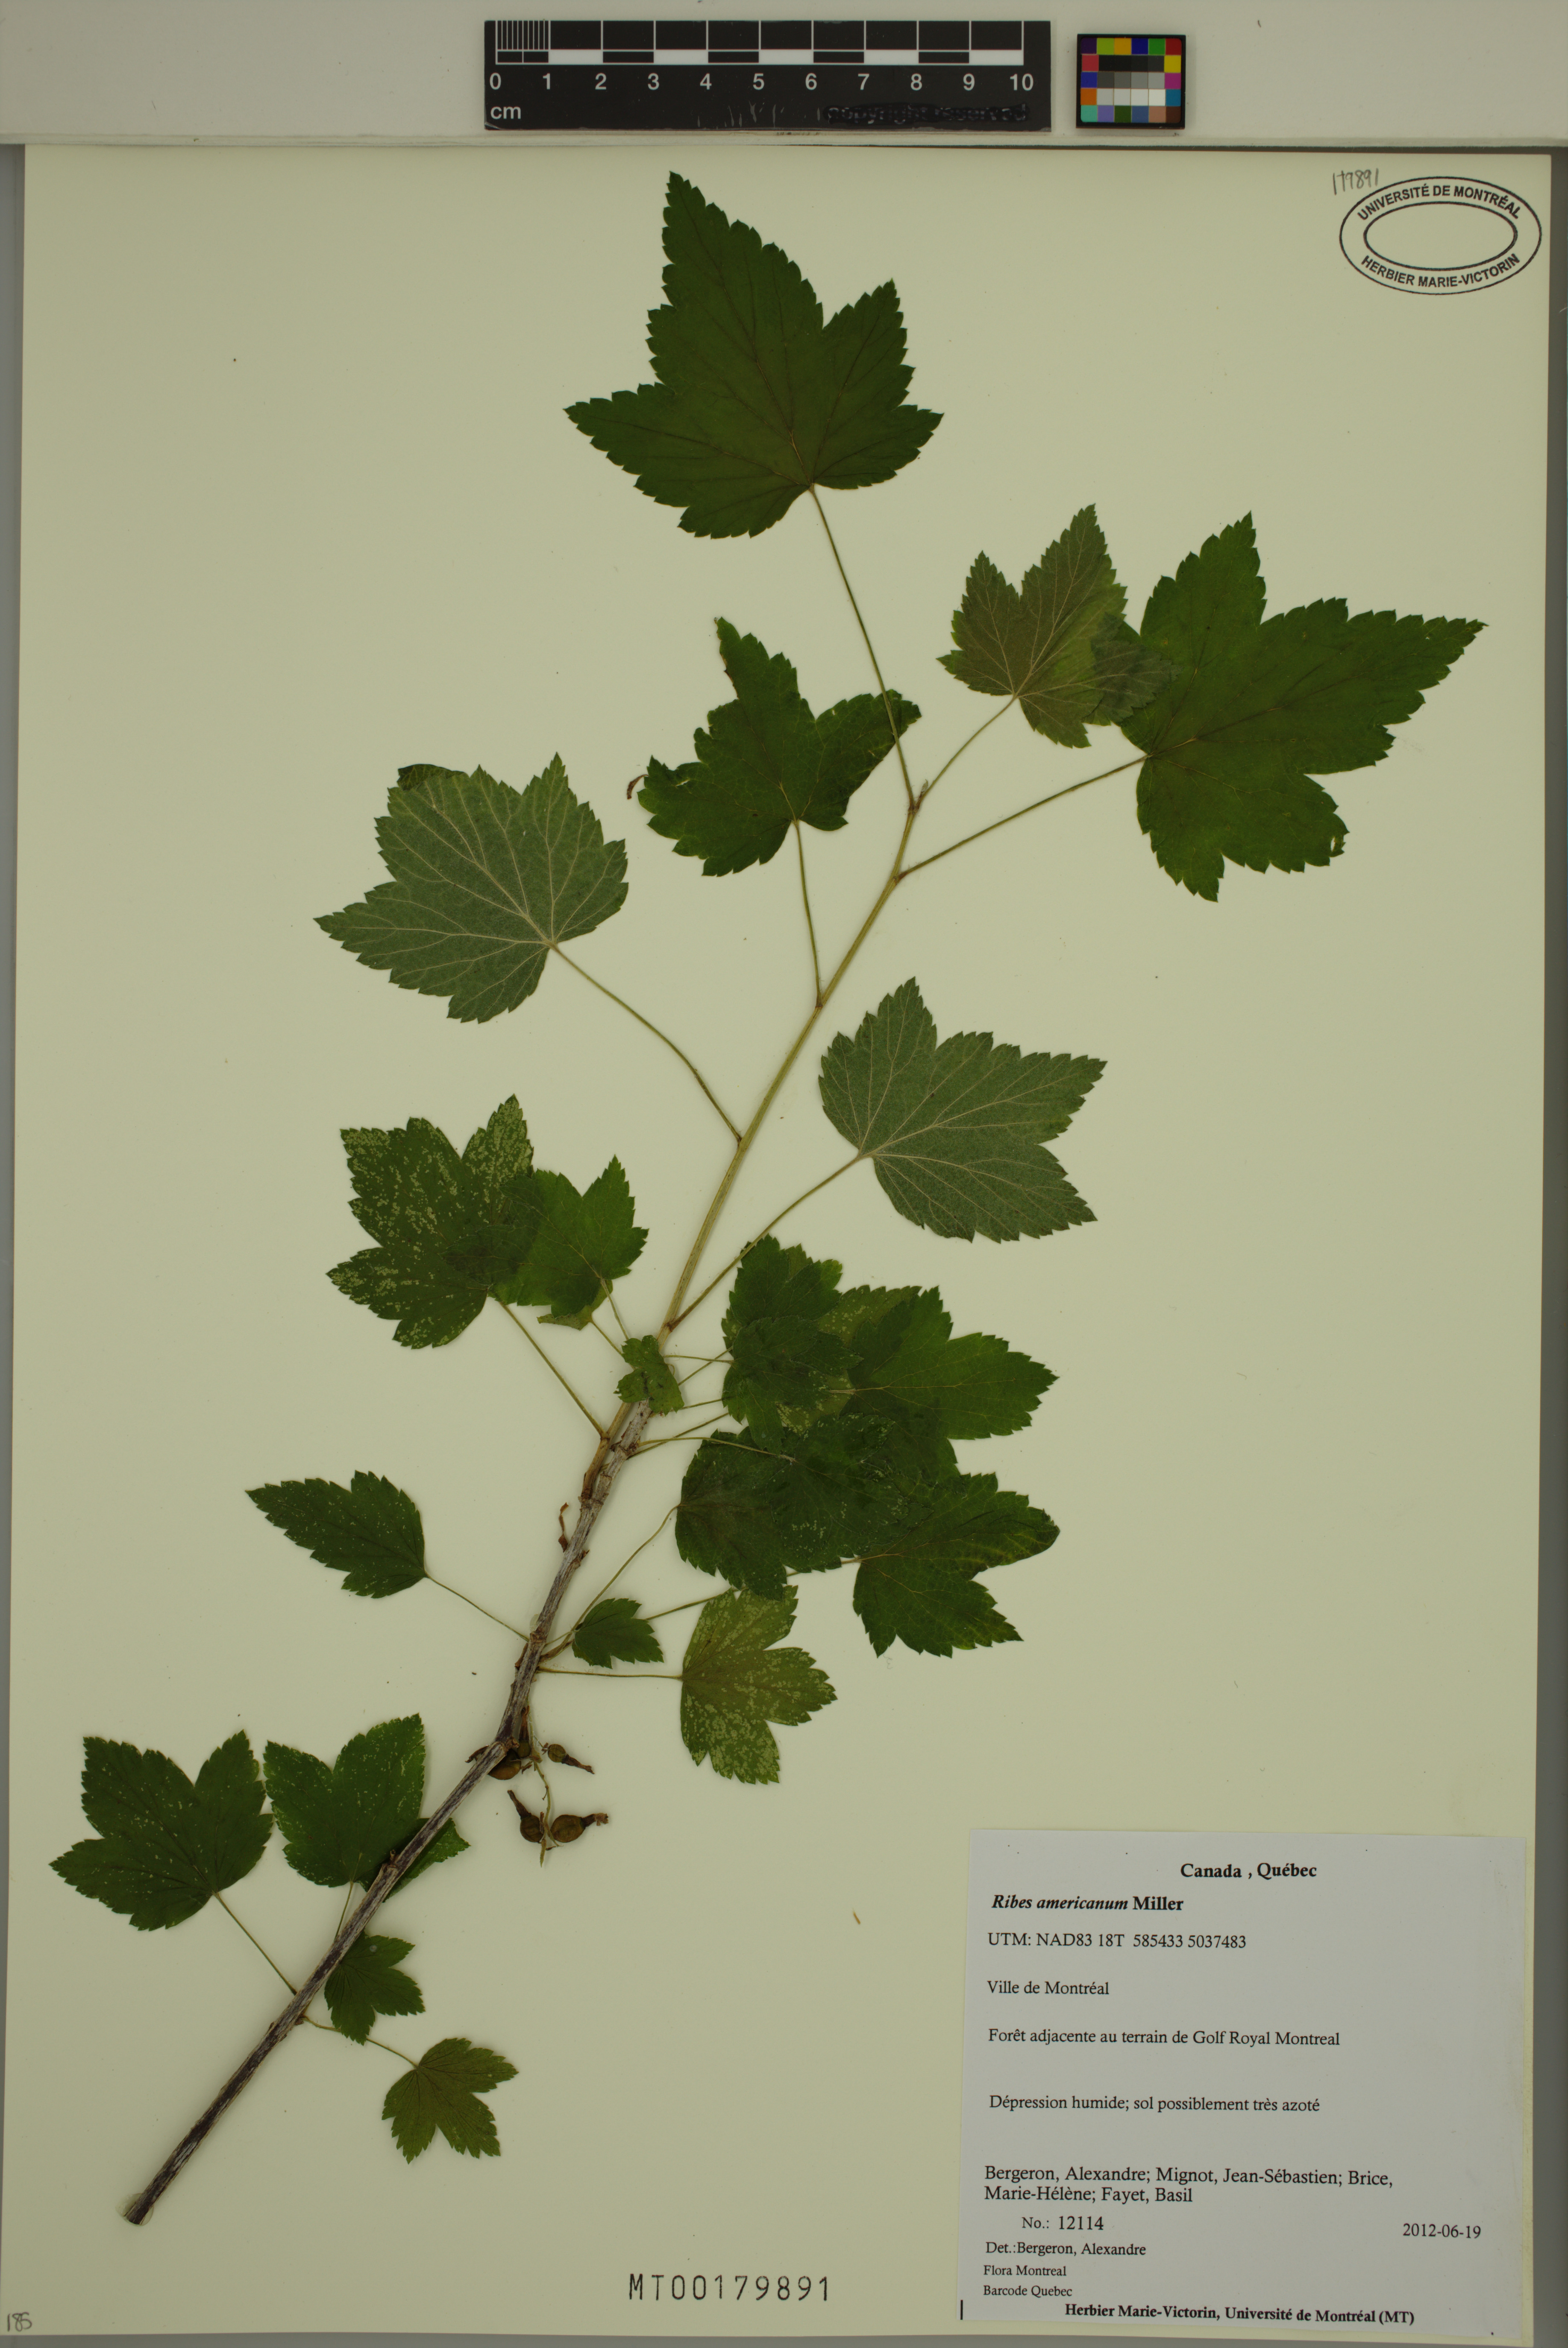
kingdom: Plantae
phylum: Tracheophyta
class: Magnoliopsida
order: Saxifragales
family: Grossulariaceae
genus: Ribes
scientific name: Ribes americanum
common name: American black currant
